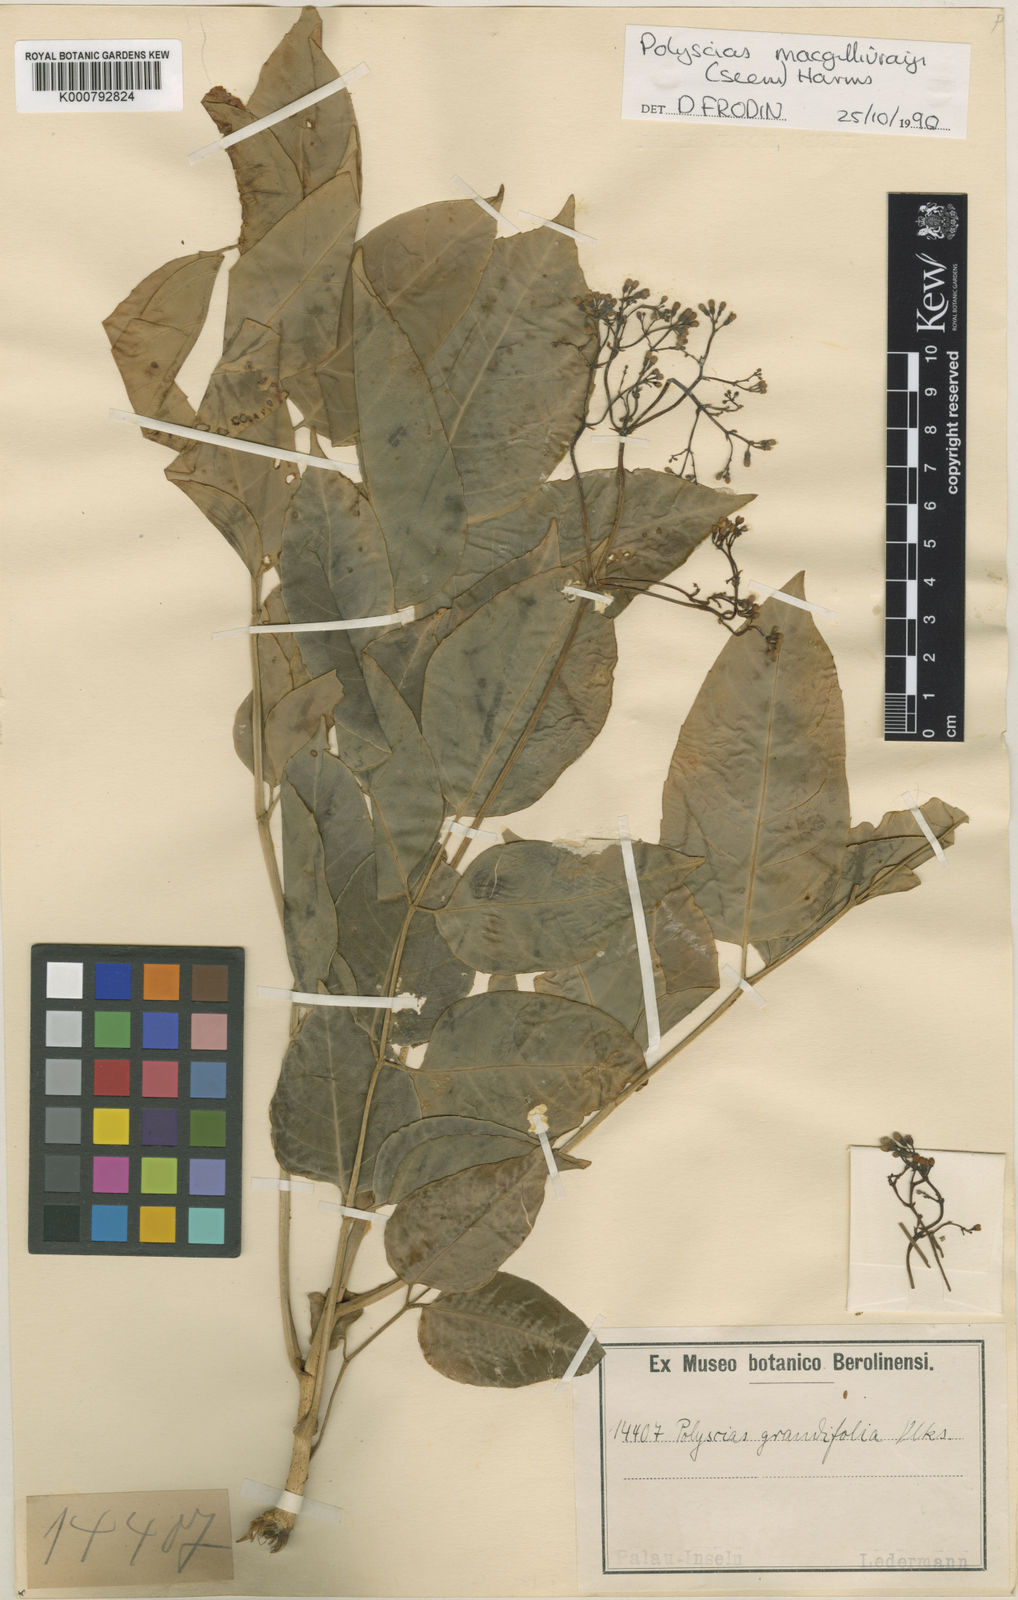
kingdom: Plantae
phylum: Tracheophyta
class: Magnoliopsida
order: Apiales
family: Araliaceae
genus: Polyscias
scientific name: Polyscias macgillivrayi
